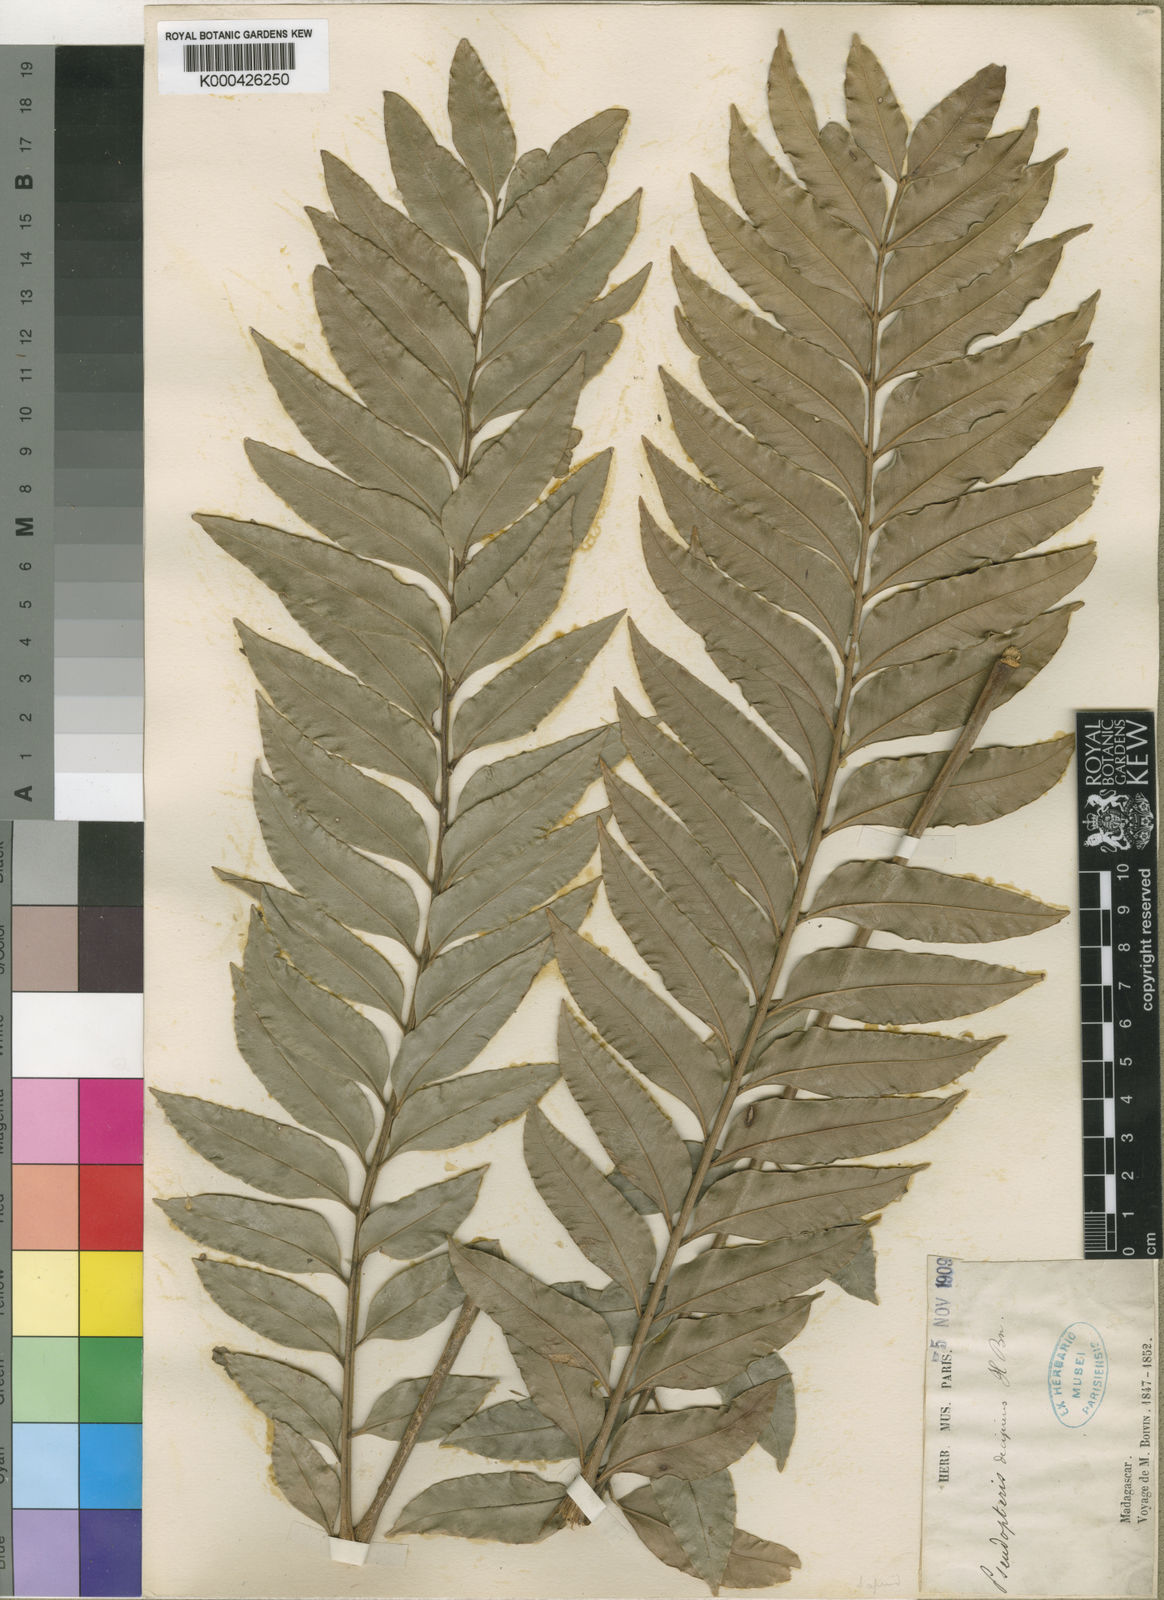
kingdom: Plantae
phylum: Tracheophyta
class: Magnoliopsida
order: Sapindales
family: Sapindaceae
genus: Pseudopteris
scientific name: Pseudopteris decipiens
